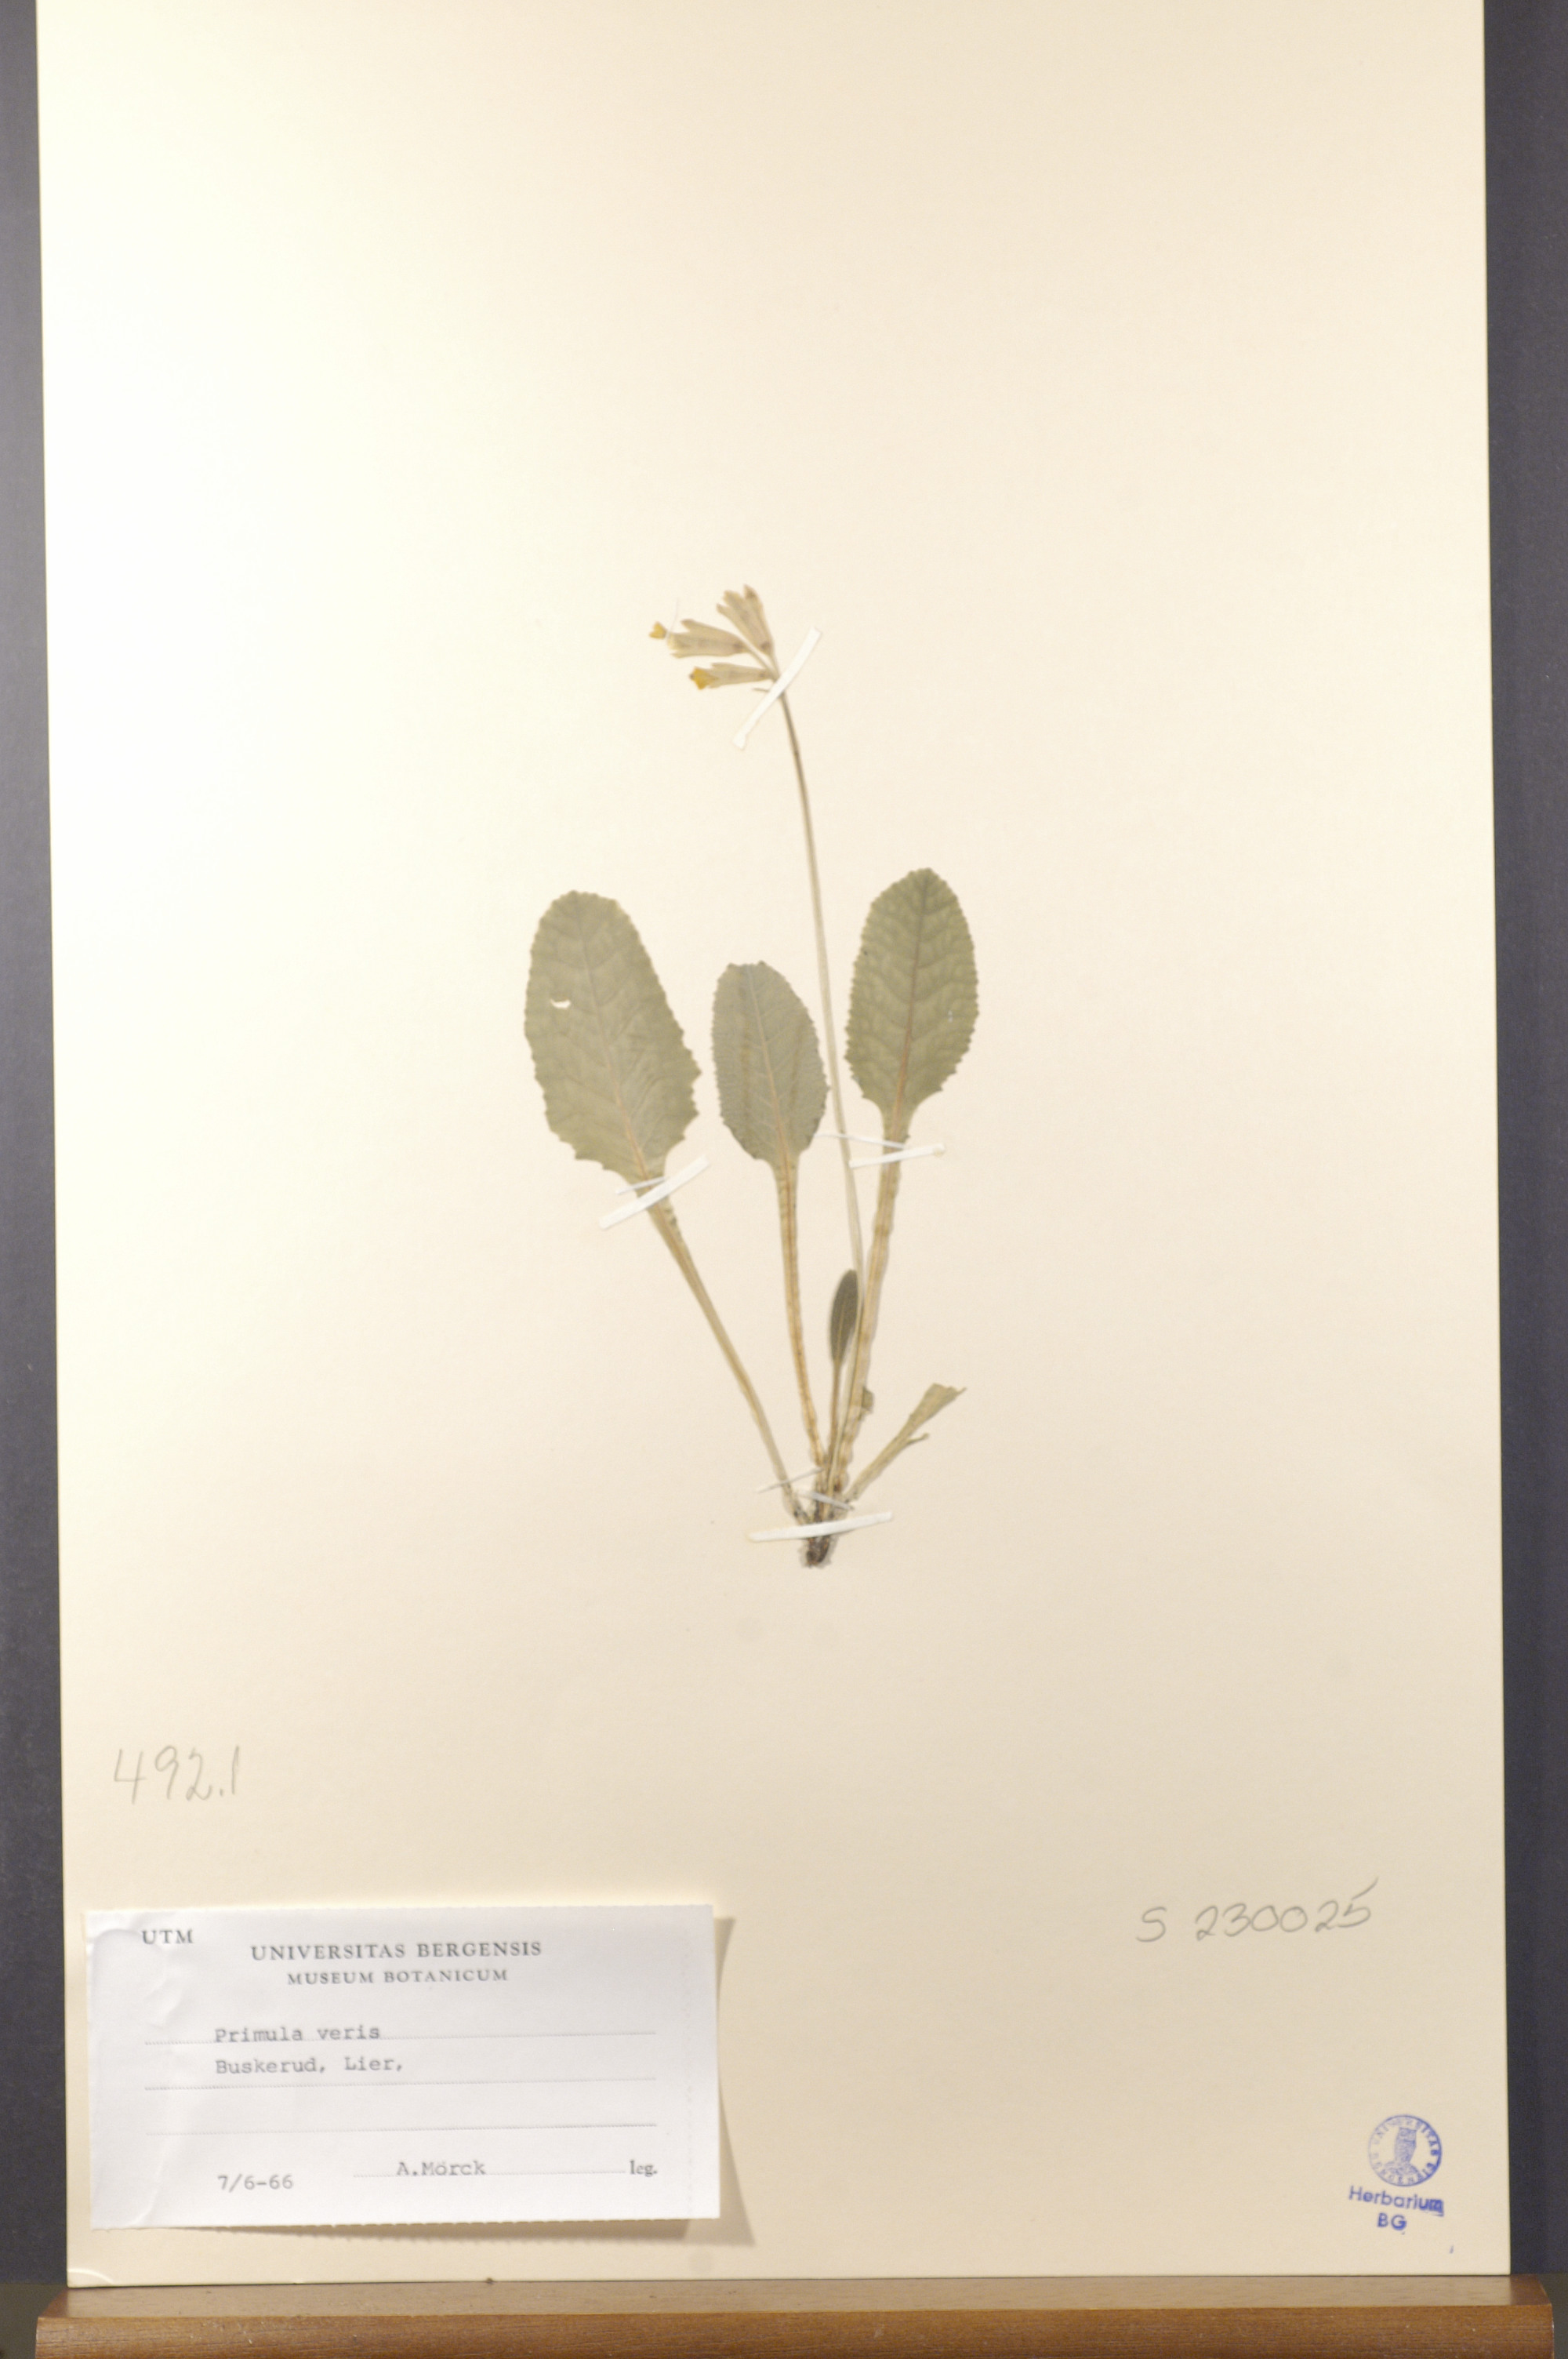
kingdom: Plantae
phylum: Tracheophyta
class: Magnoliopsida
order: Ericales
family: Primulaceae
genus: Primula
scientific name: Primula veris
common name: Cowslip
